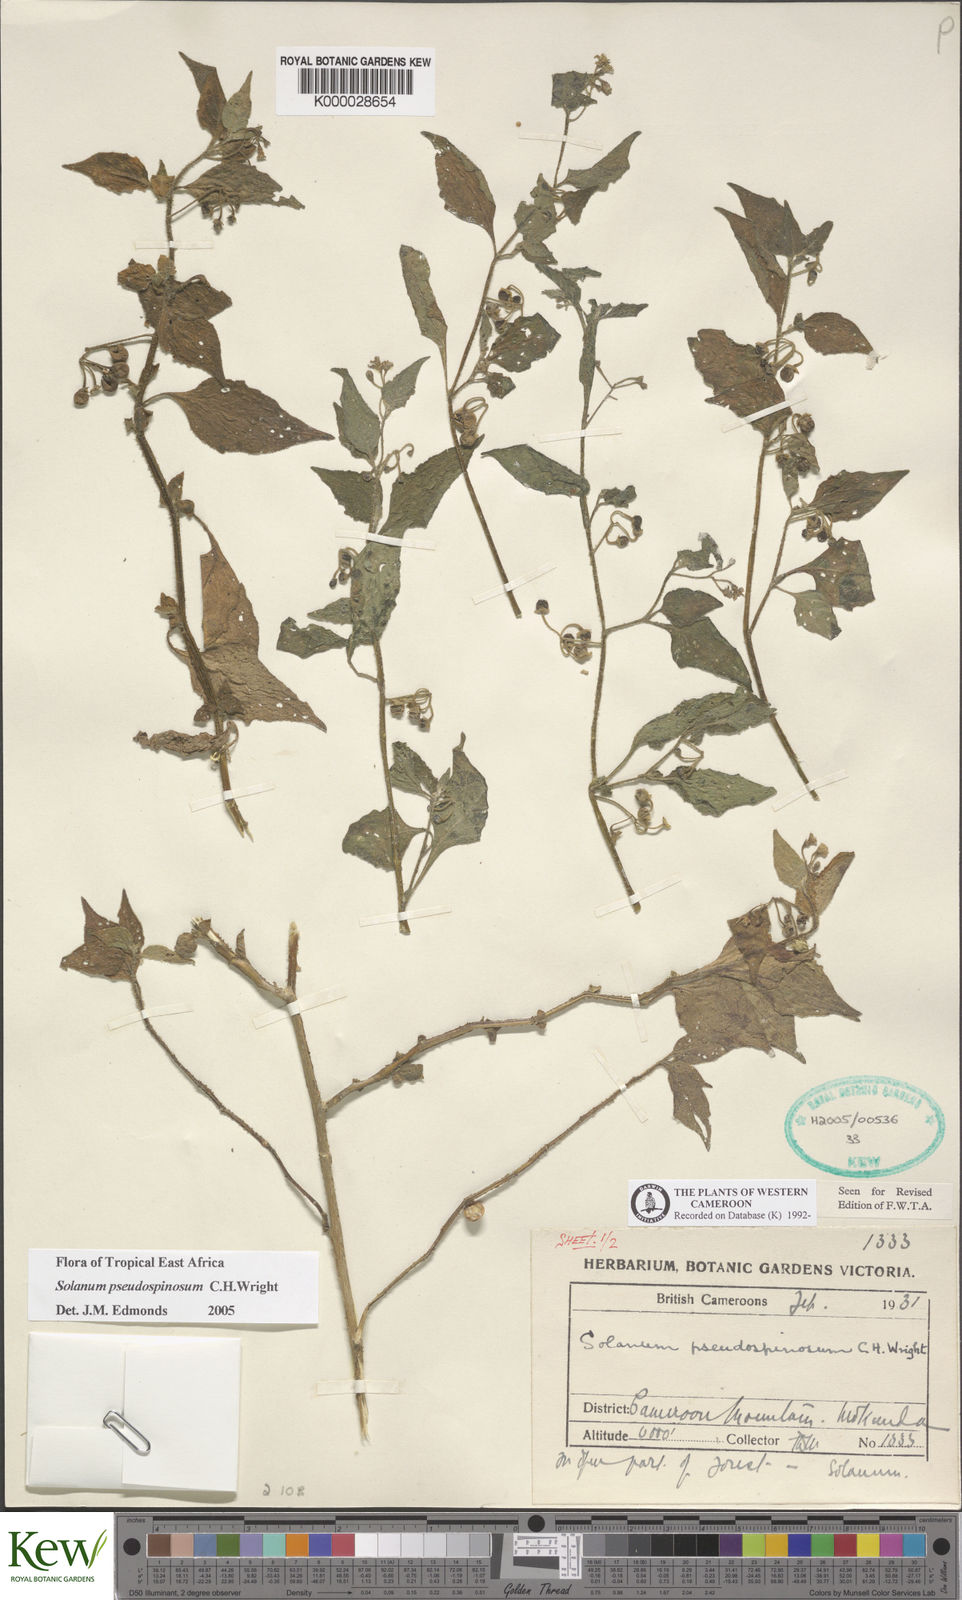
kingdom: Plantae
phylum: Tracheophyta
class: Magnoliopsida
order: Solanales
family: Solanaceae
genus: Solanum
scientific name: Solanum pseudospinosum
